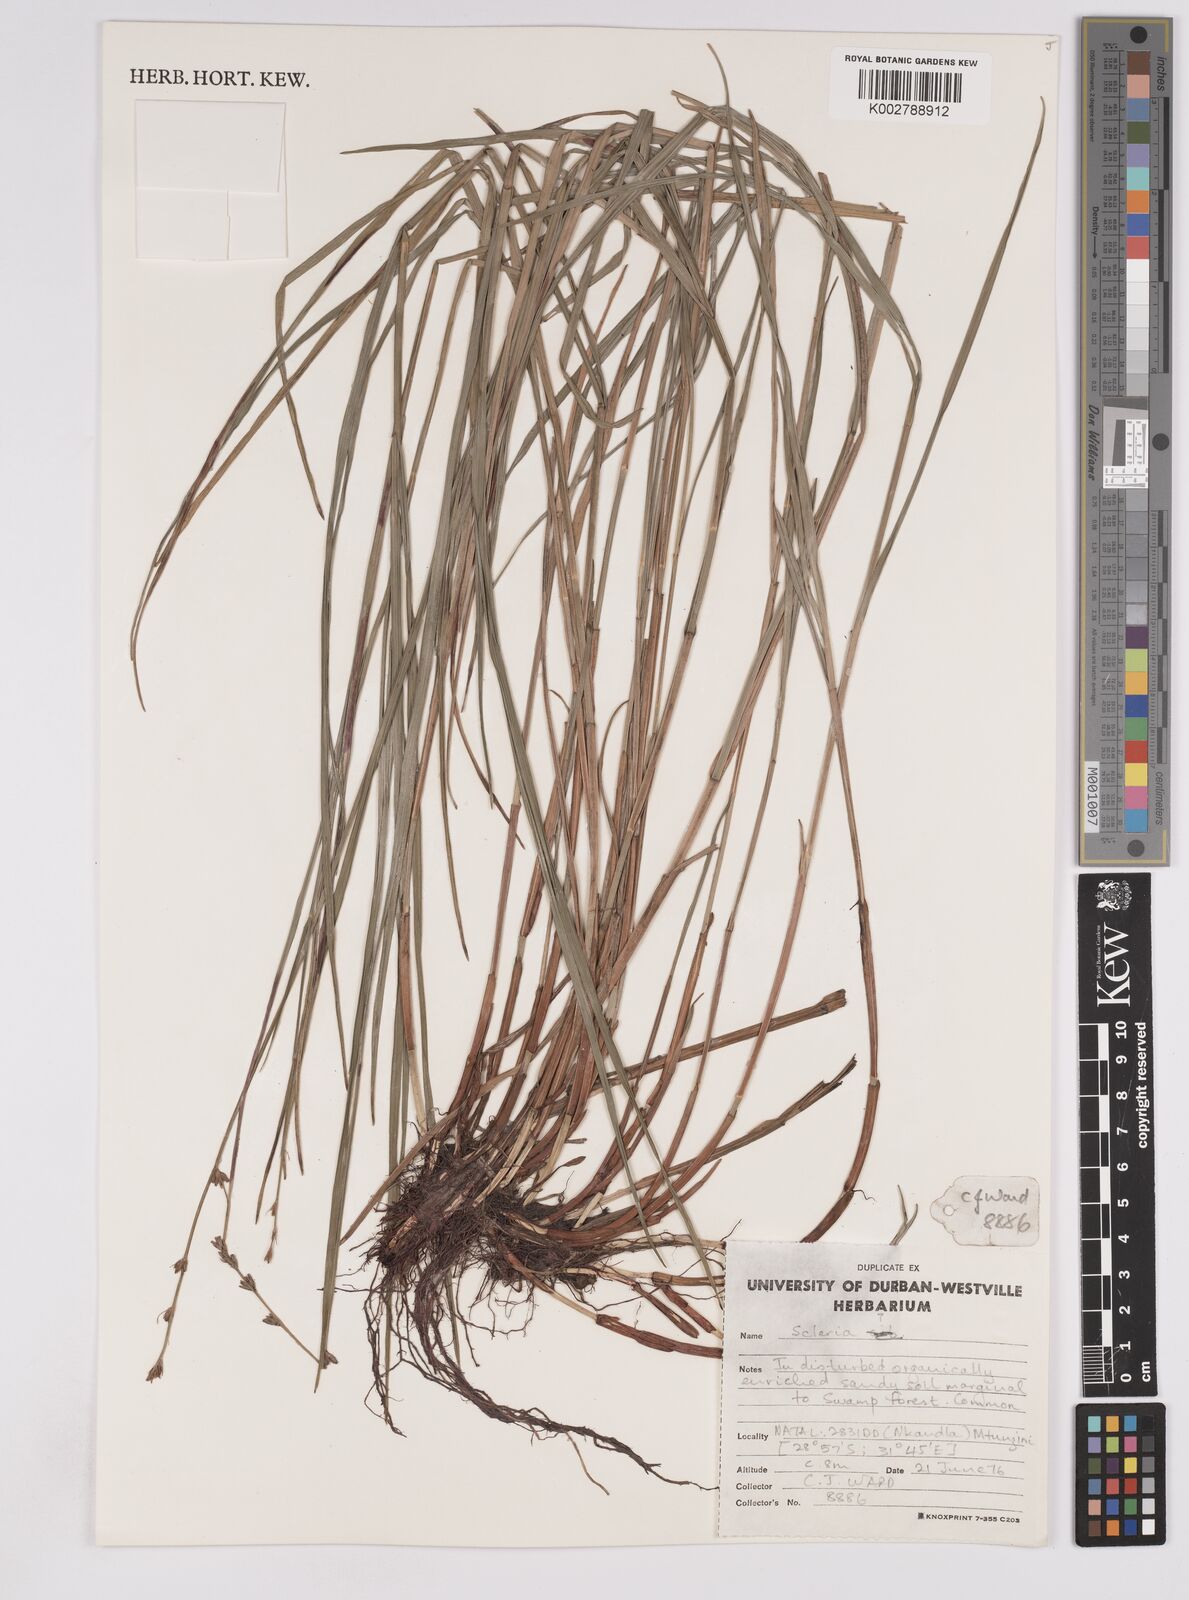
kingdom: Plantae
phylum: Tracheophyta
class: Liliopsida
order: Poales
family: Cyperaceae
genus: Scleria
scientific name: Scleria sobolifera
